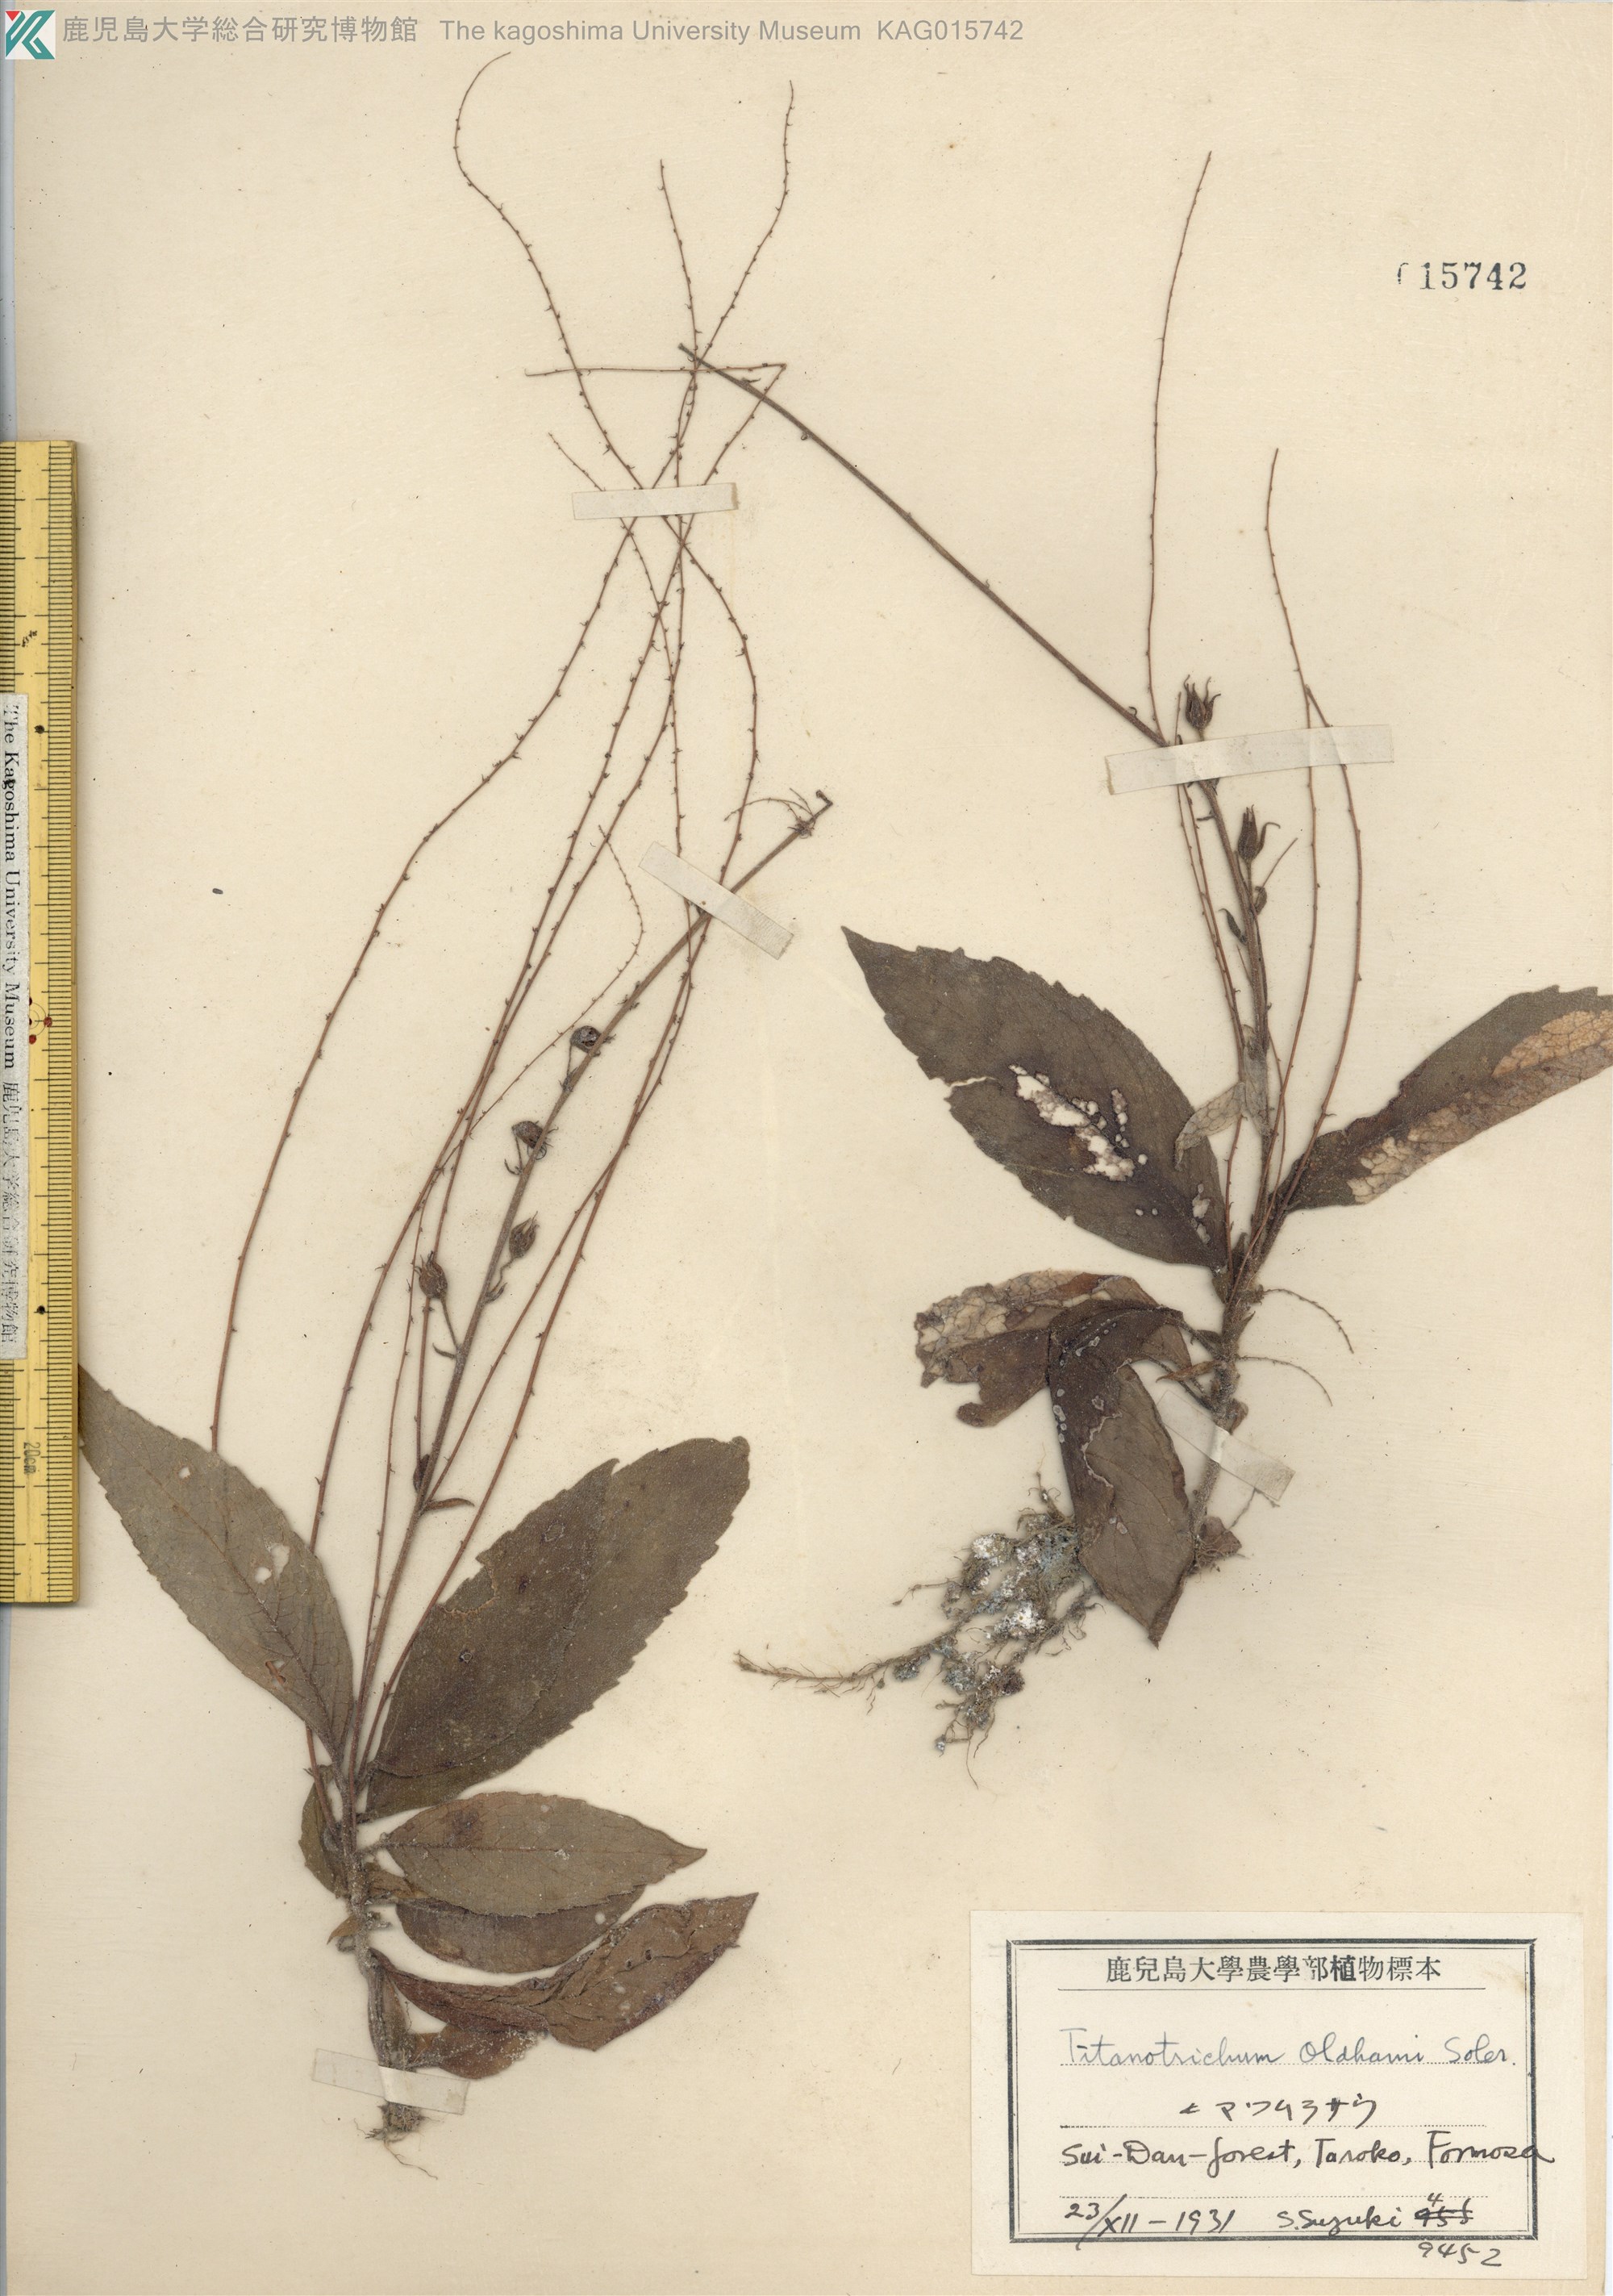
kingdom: Plantae
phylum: Tracheophyta
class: Magnoliopsida
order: Lamiales
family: Gesneriaceae
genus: Titanotrichum
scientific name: Titanotrichum oldhamii
